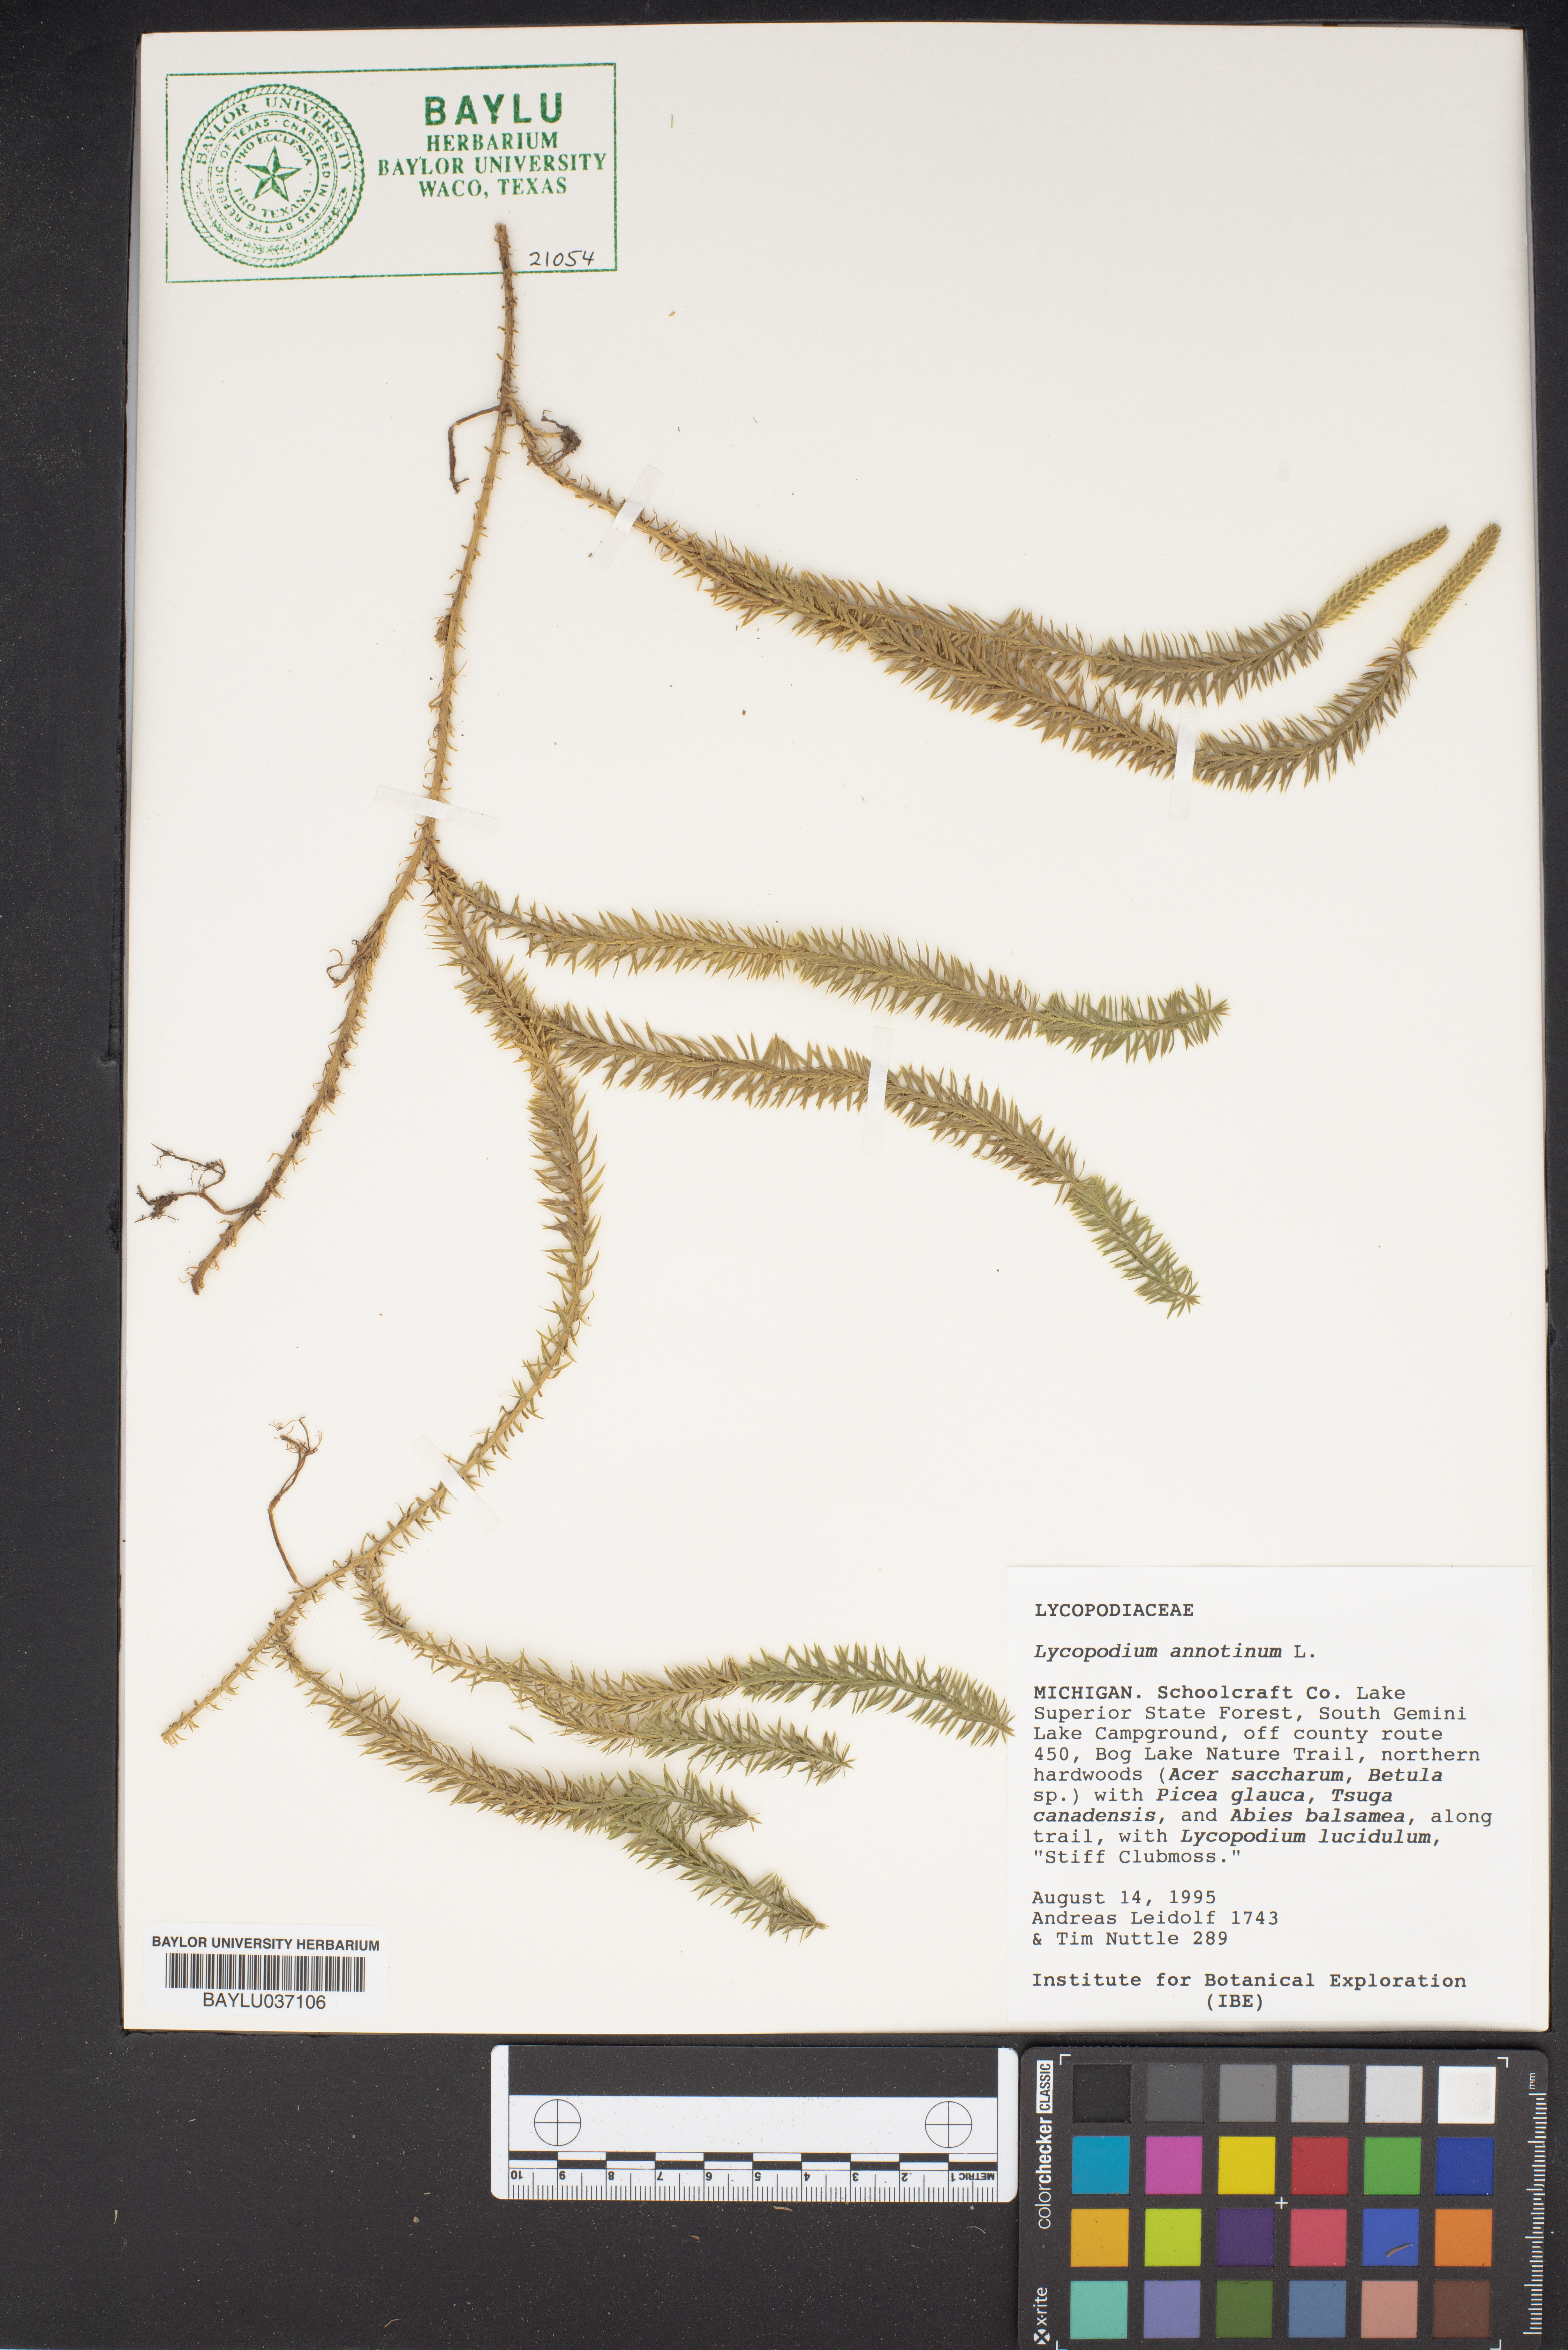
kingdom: Plantae
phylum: Tracheophyta
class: Lycopodiopsida
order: Lycopodiales
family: Lycopodiaceae
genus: Spinulum
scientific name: Spinulum annotinum
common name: Interrupted club-moss
